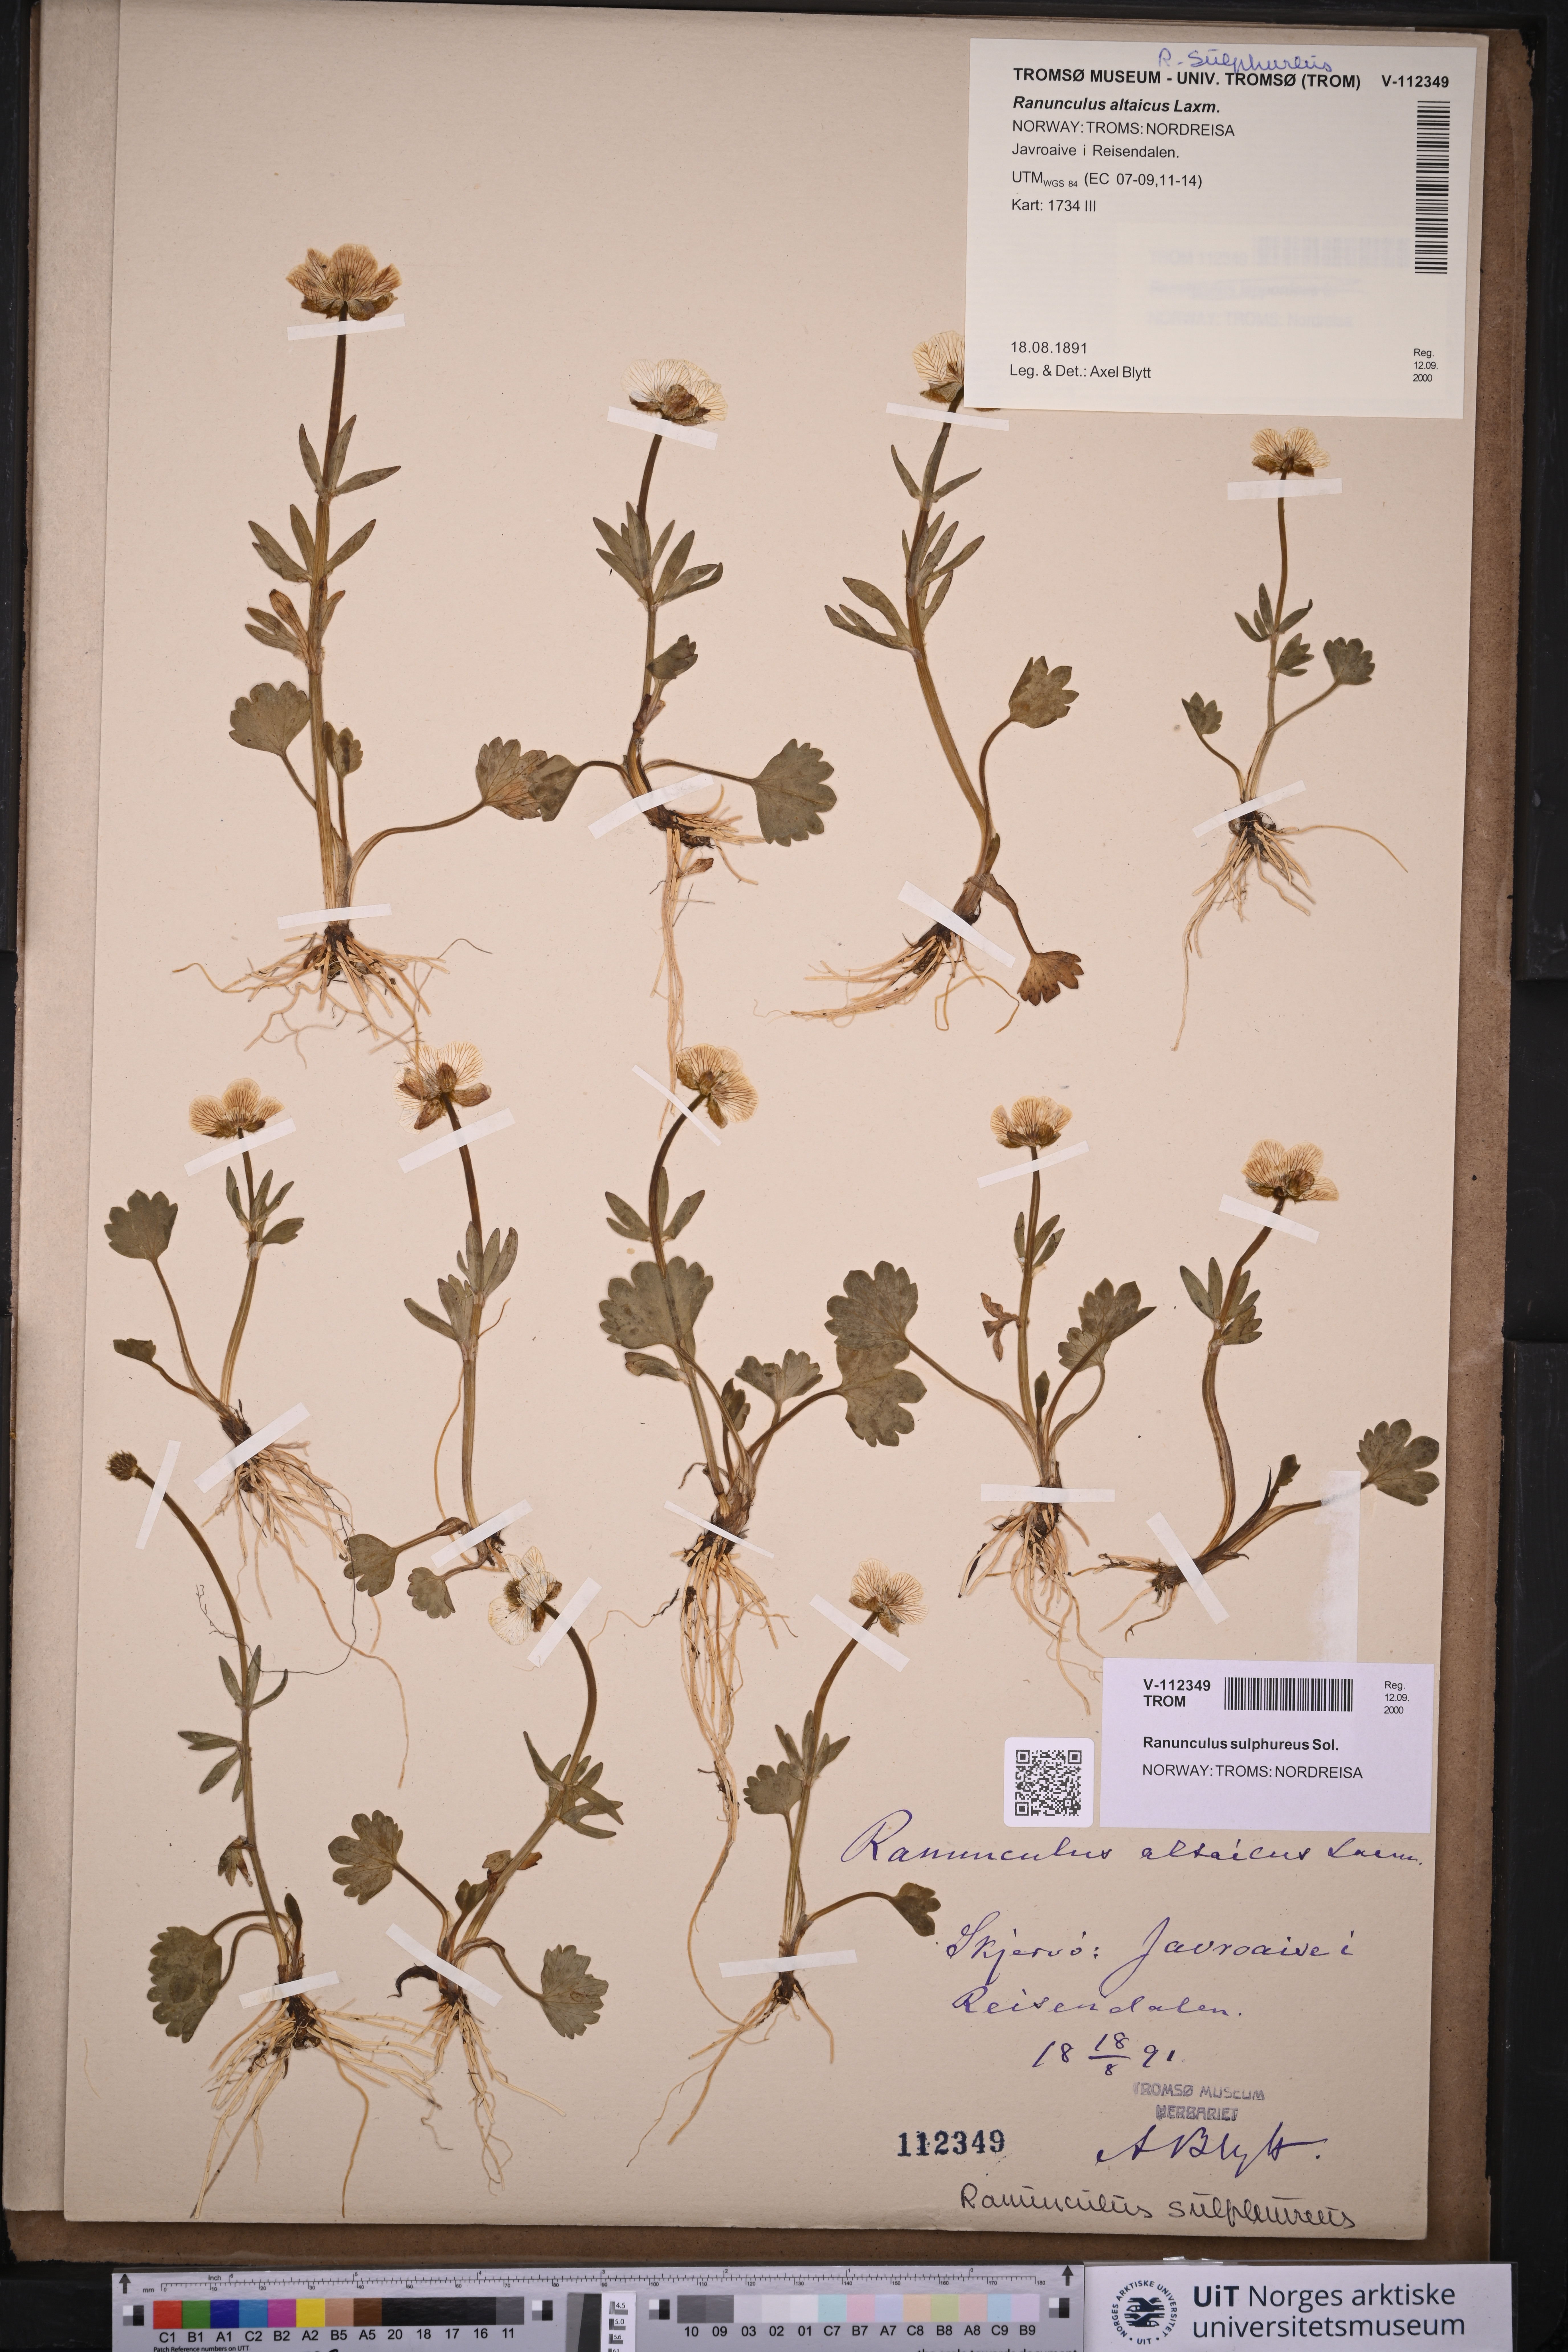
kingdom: Plantae
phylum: Tracheophyta
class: Magnoliopsida
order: Ranunculales
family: Ranunculaceae
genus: Ranunculus
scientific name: Ranunculus sulphureus
